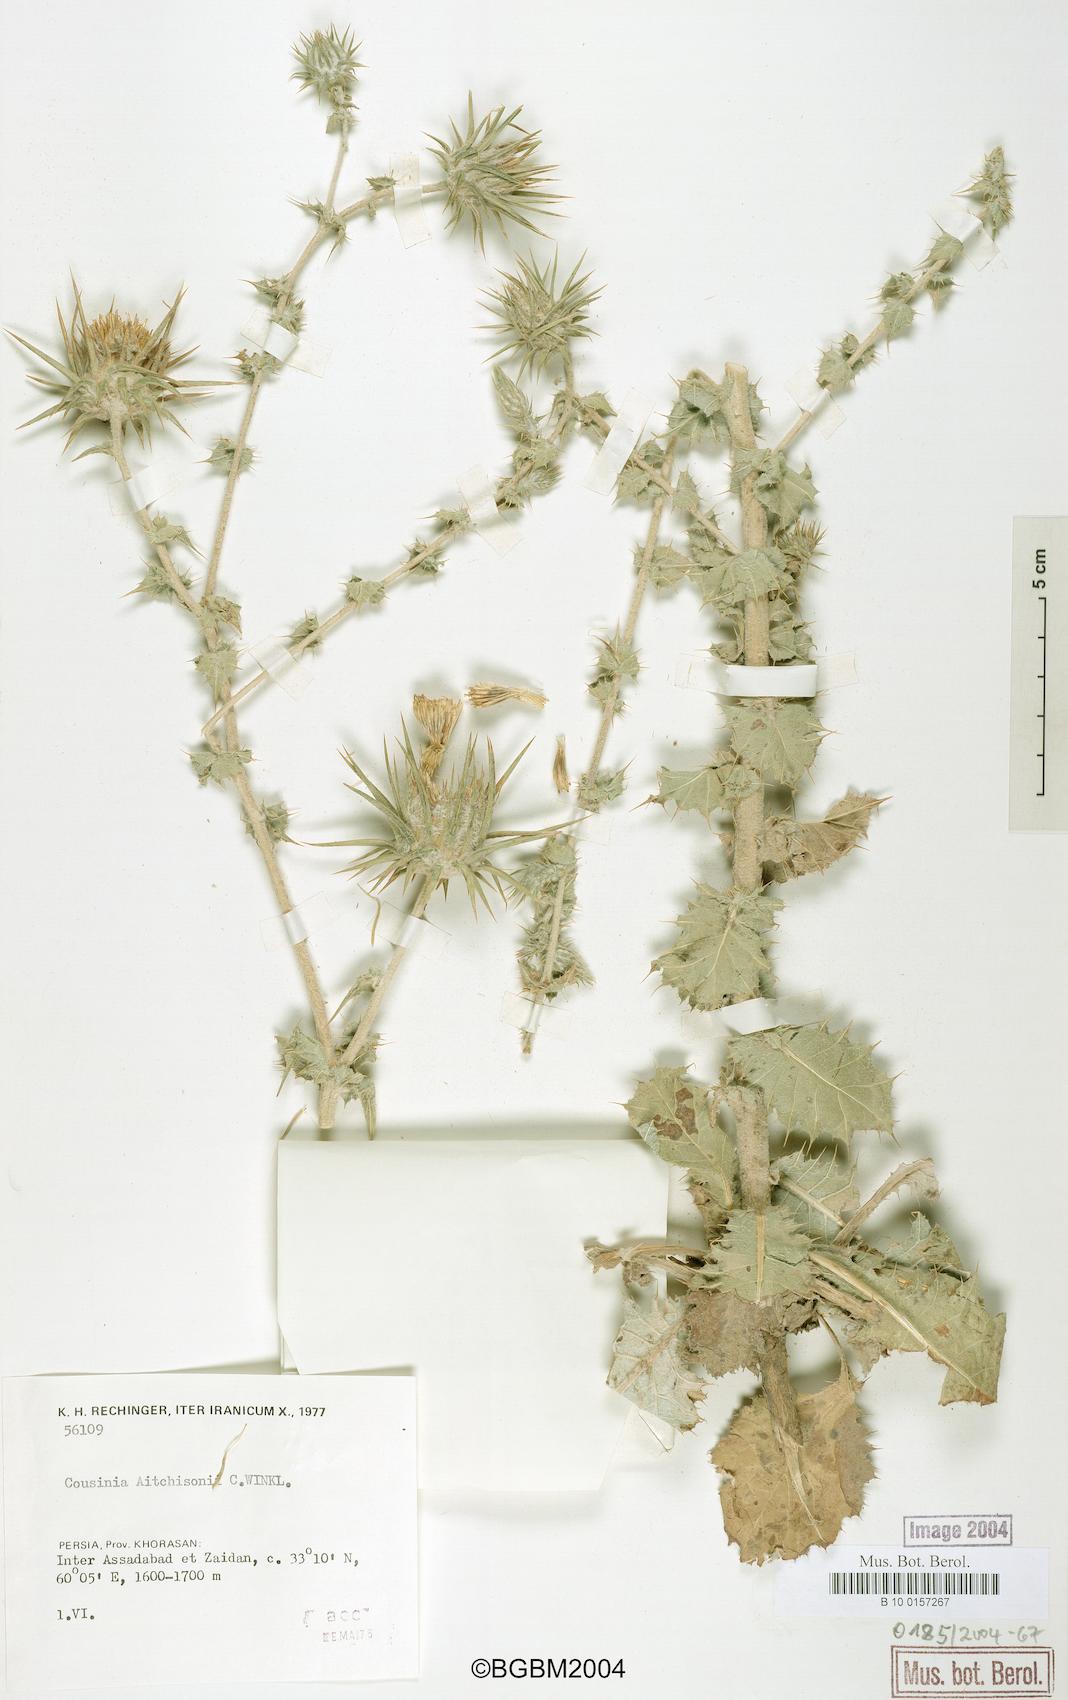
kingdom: Plantae
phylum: Tracheophyta
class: Magnoliopsida
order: Asterales
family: Asteraceae
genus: Cousinia
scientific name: Cousinia aitchisonii
